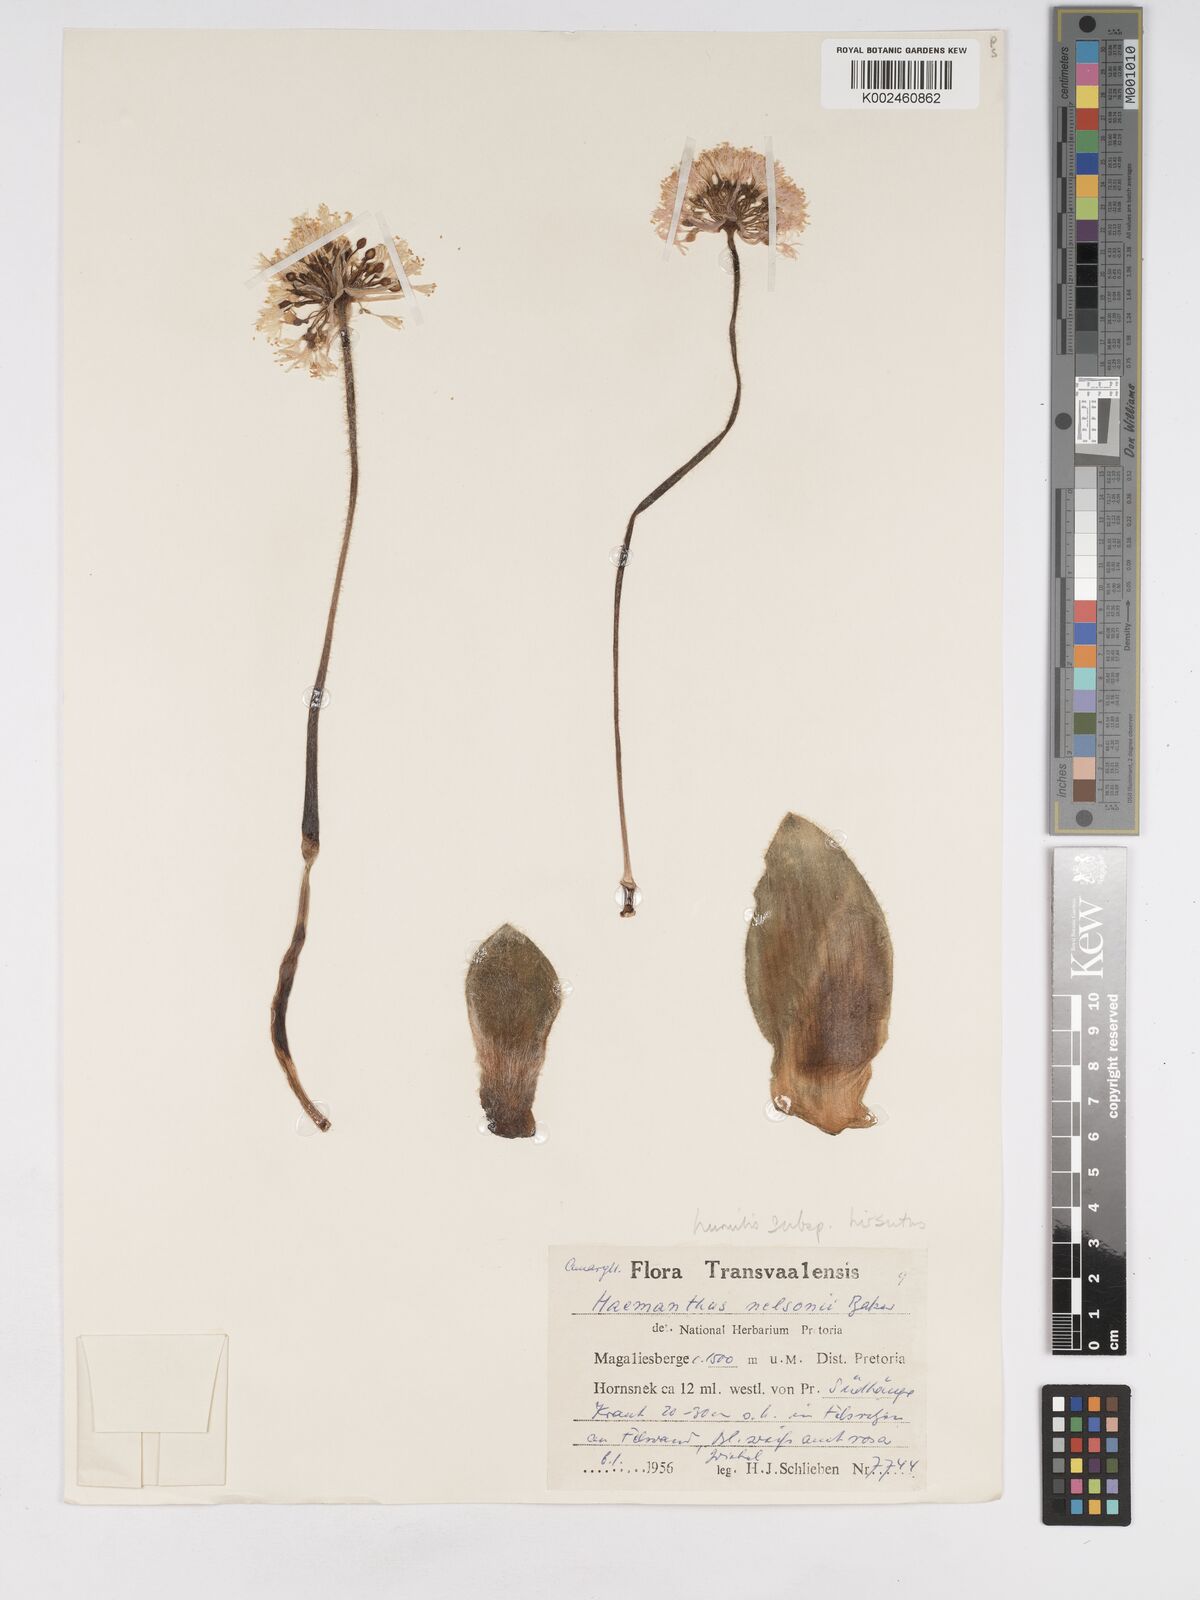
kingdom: Plantae
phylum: Tracheophyta
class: Liliopsida
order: Asparagales
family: Amaryllidaceae
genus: Haemanthus
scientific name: Haemanthus humilis
